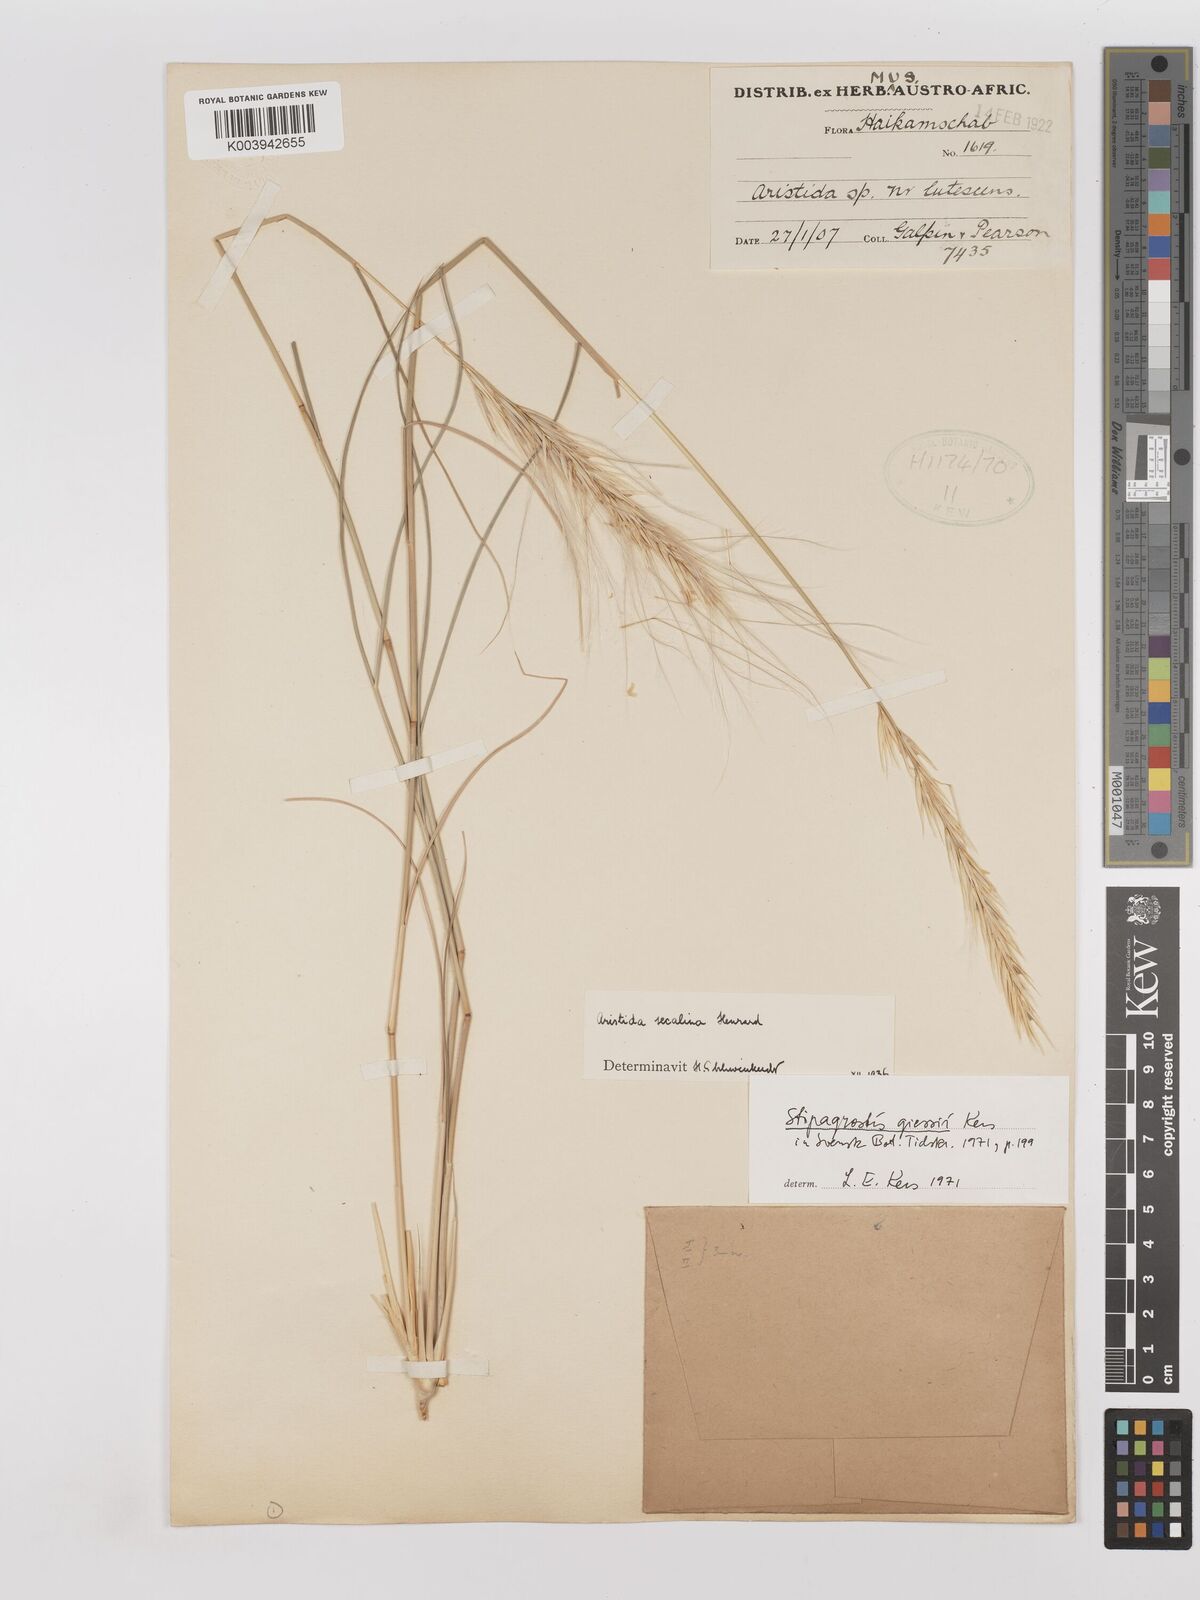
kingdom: Plantae
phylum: Tracheophyta
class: Liliopsida
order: Poales
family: Poaceae
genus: Stipagrostis
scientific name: Stipagrostis giessii
